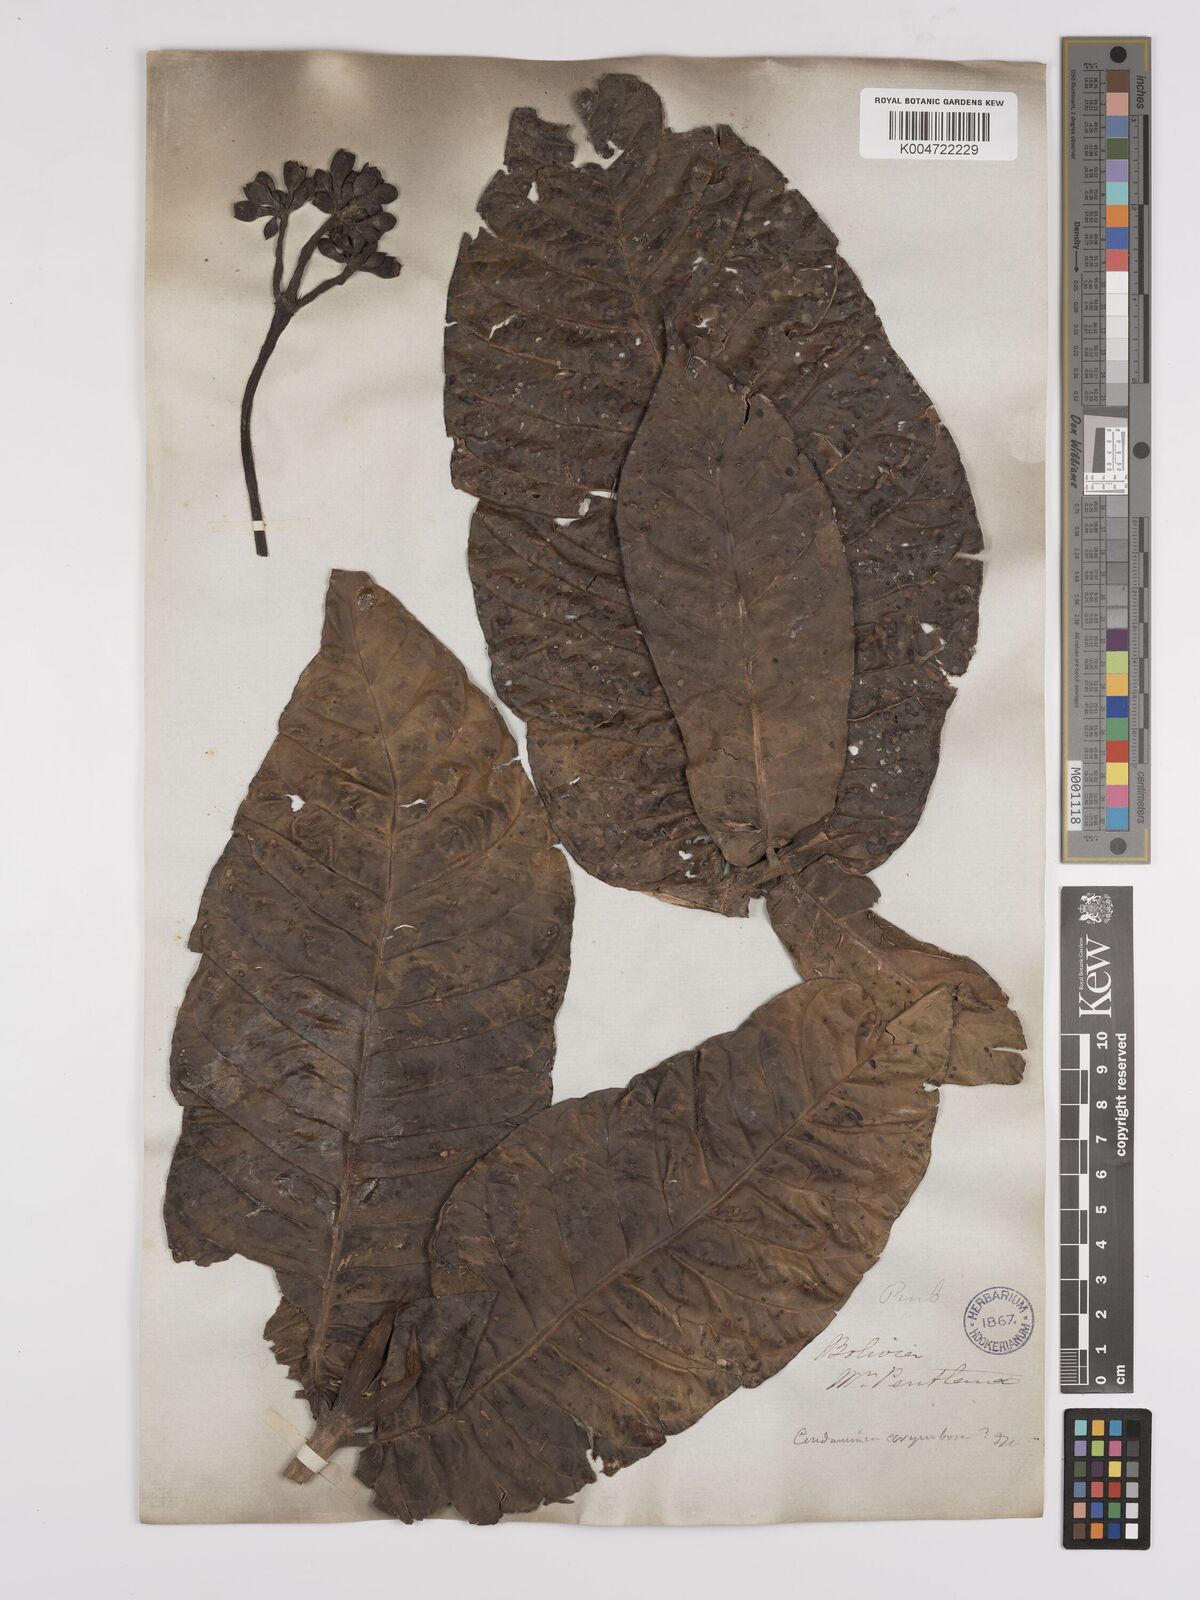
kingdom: Plantae
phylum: Tracheophyta
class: Magnoliopsida
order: Gentianales
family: Rubiaceae
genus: Condaminea
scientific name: Condaminea corymbosa
